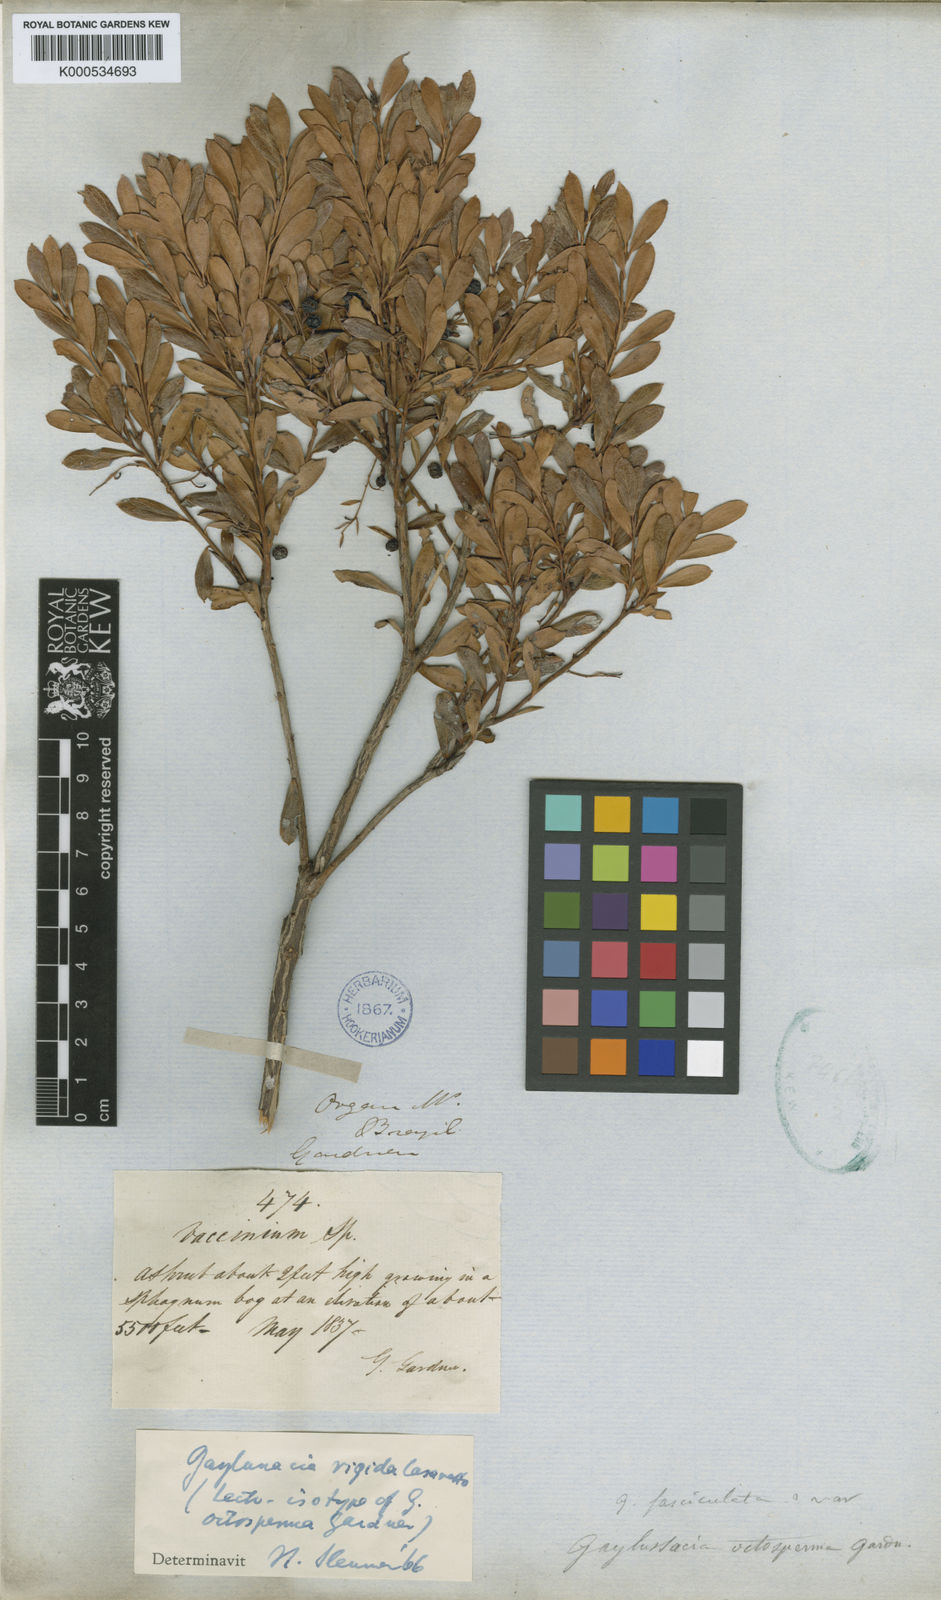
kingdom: Plantae
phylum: Tracheophyta
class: Magnoliopsida
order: Ericales
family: Ericaceae
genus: Gaylussacia
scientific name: Gaylussacia rigida
